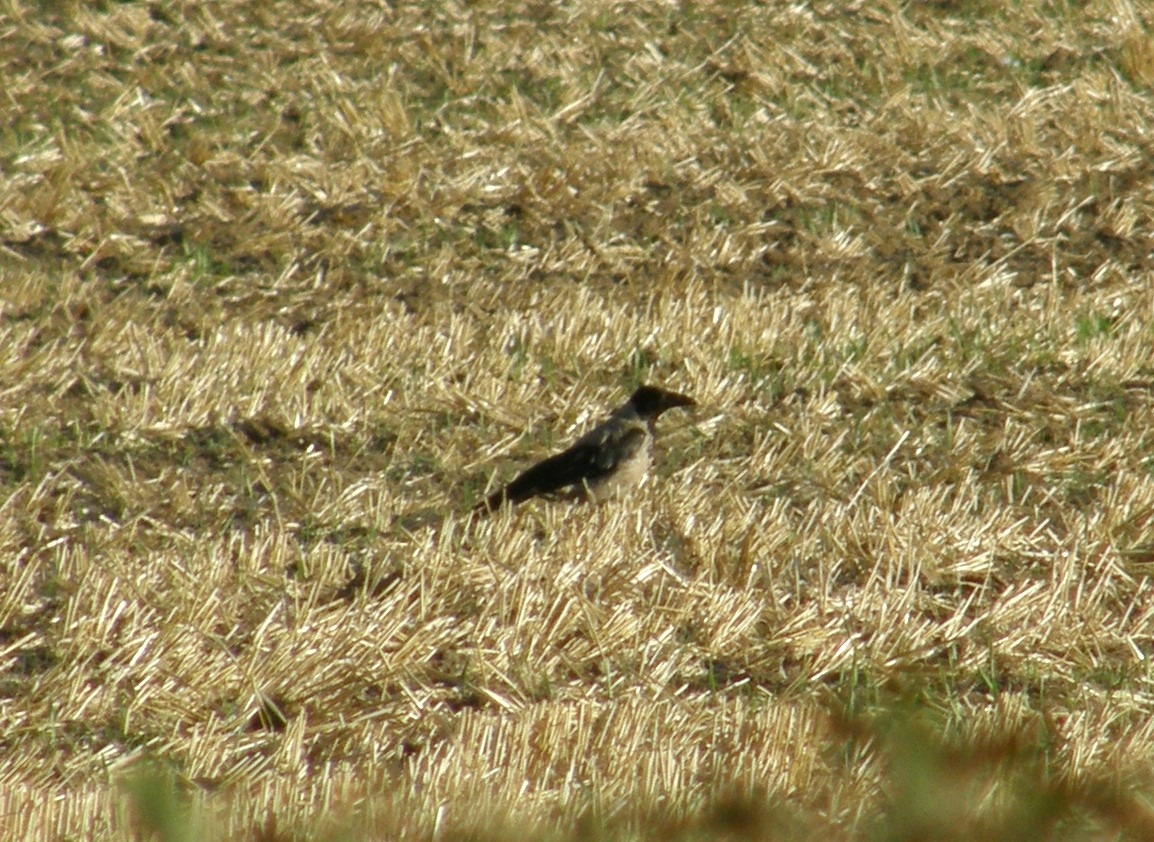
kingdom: Animalia
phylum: Chordata
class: Aves
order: Passeriformes
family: Corvidae
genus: Corvus
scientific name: Corvus cornix
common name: Gråkrage
